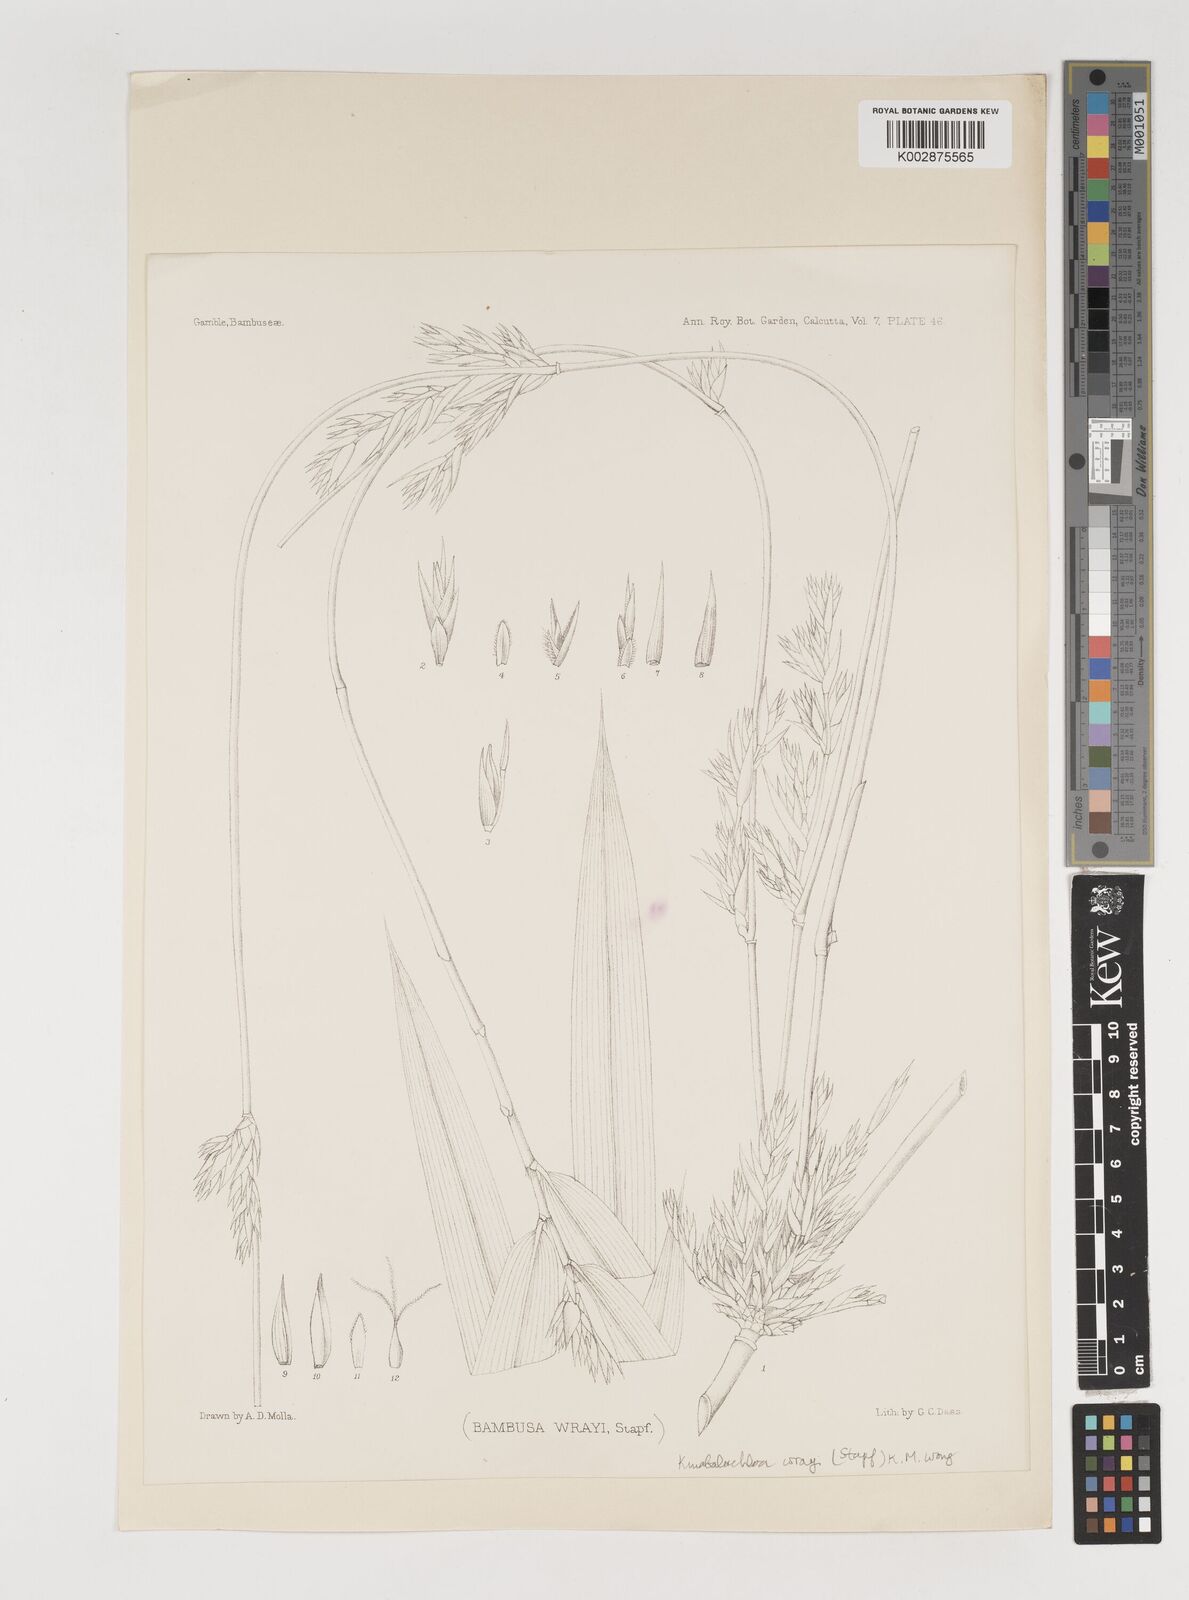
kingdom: Plantae
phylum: Tracheophyta
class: Liliopsida
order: Poales
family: Poaceae
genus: Kinabaluchloa
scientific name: Kinabaluchloa wrayi
